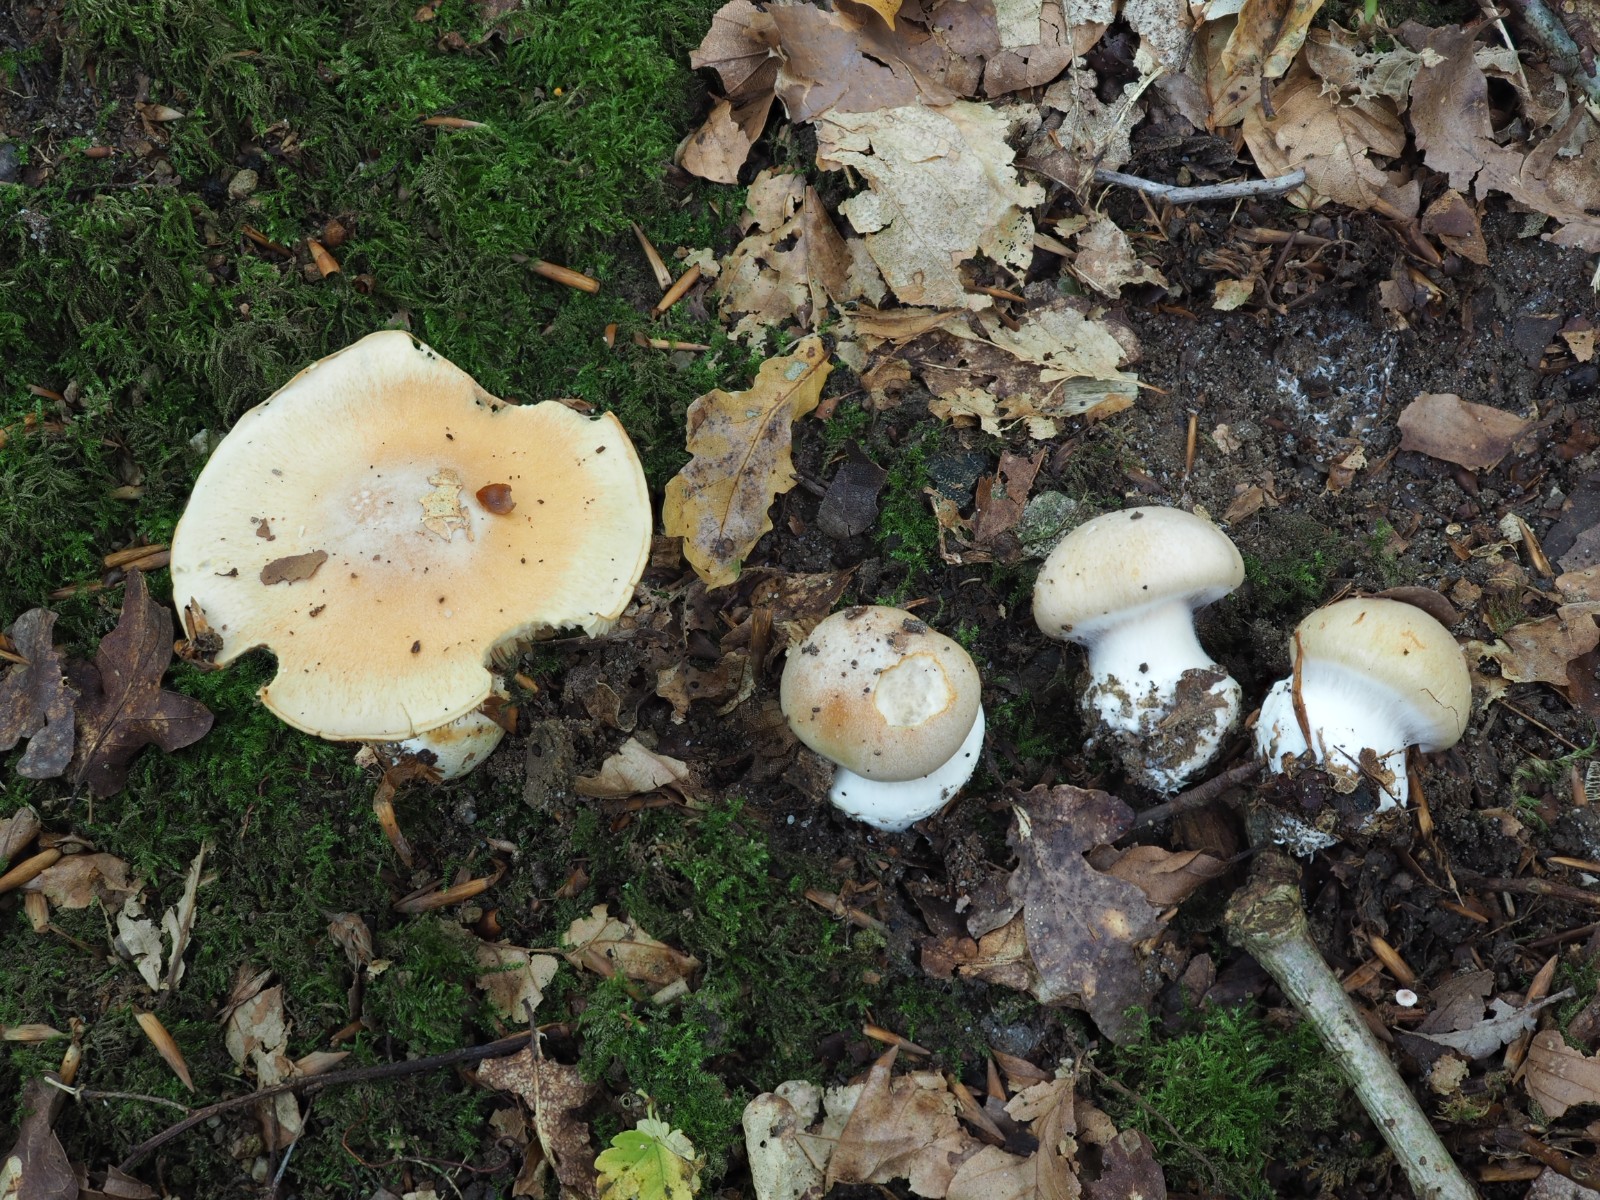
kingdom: Fungi
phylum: Basidiomycota
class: Agaricomycetes
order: Agaricales
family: Cortinariaceae
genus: Thaxterogaster
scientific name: Thaxterogaster talus
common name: knogle-slørhat
